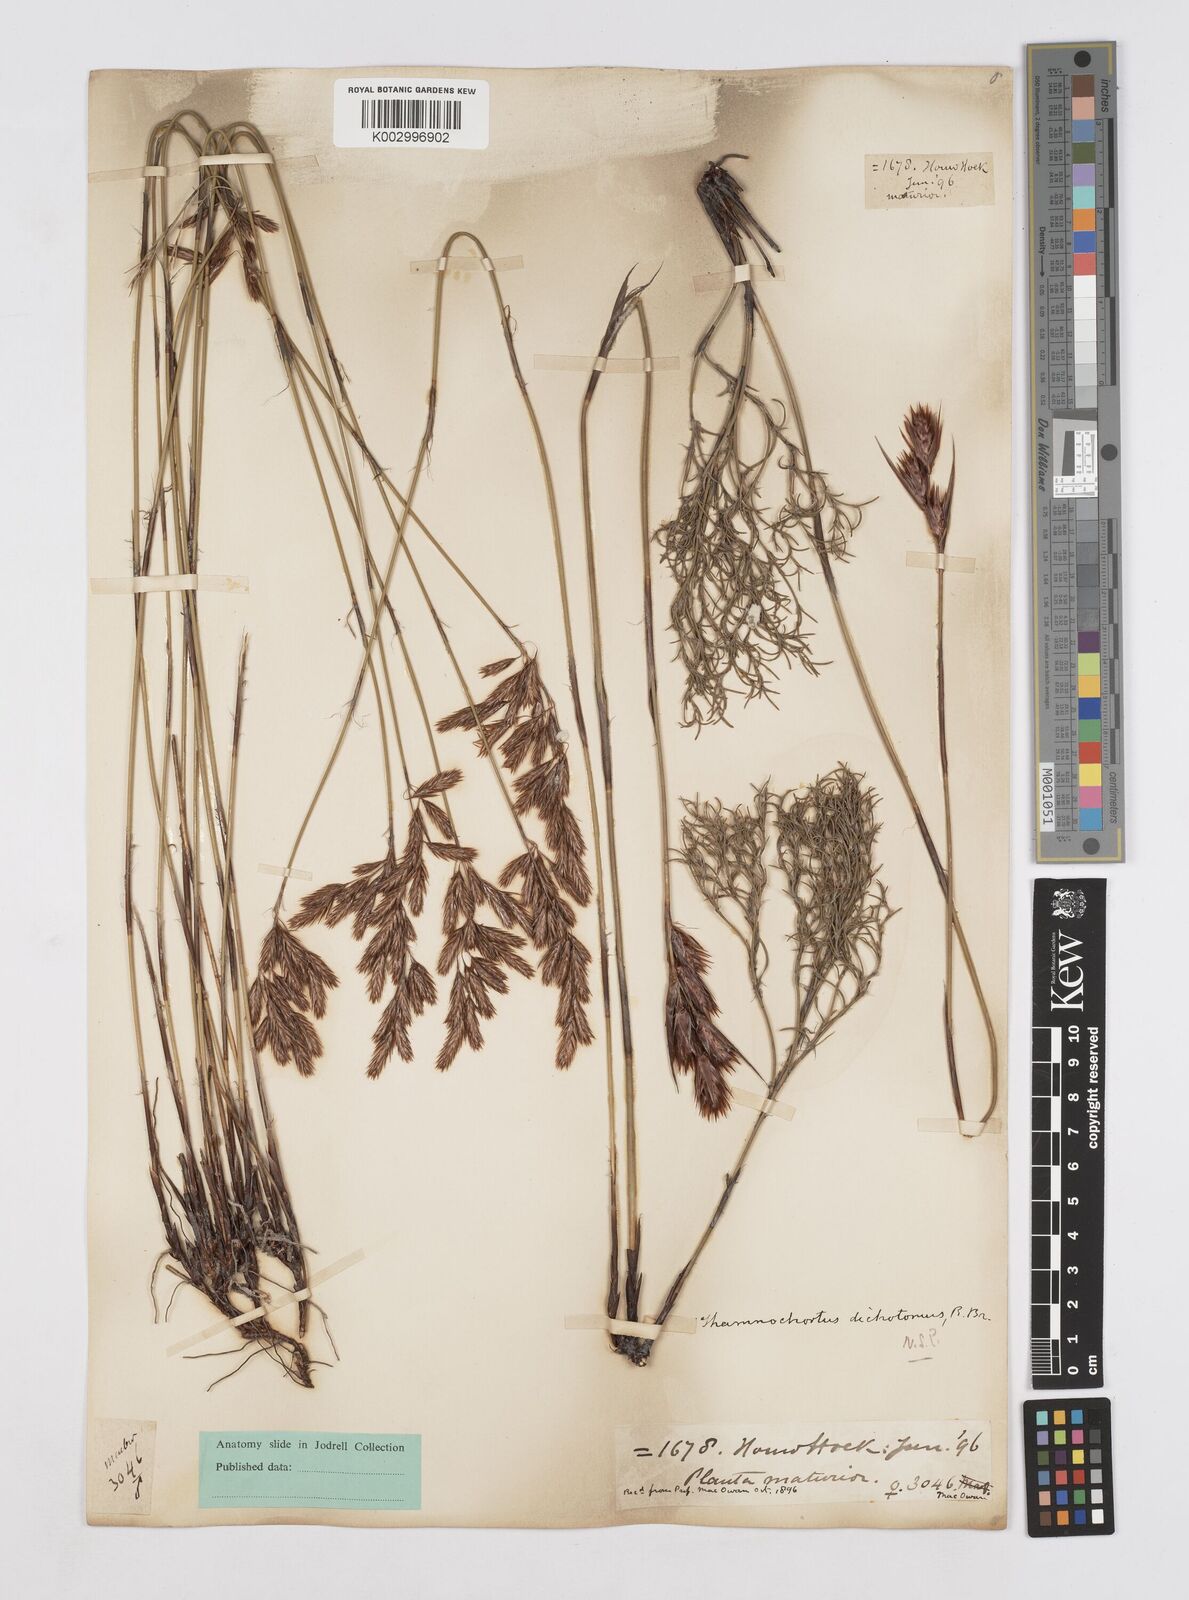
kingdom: Plantae
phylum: Tracheophyta
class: Liliopsida
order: Poales
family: Restionaceae
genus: Thamnochortus
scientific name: Thamnochortus lucens
